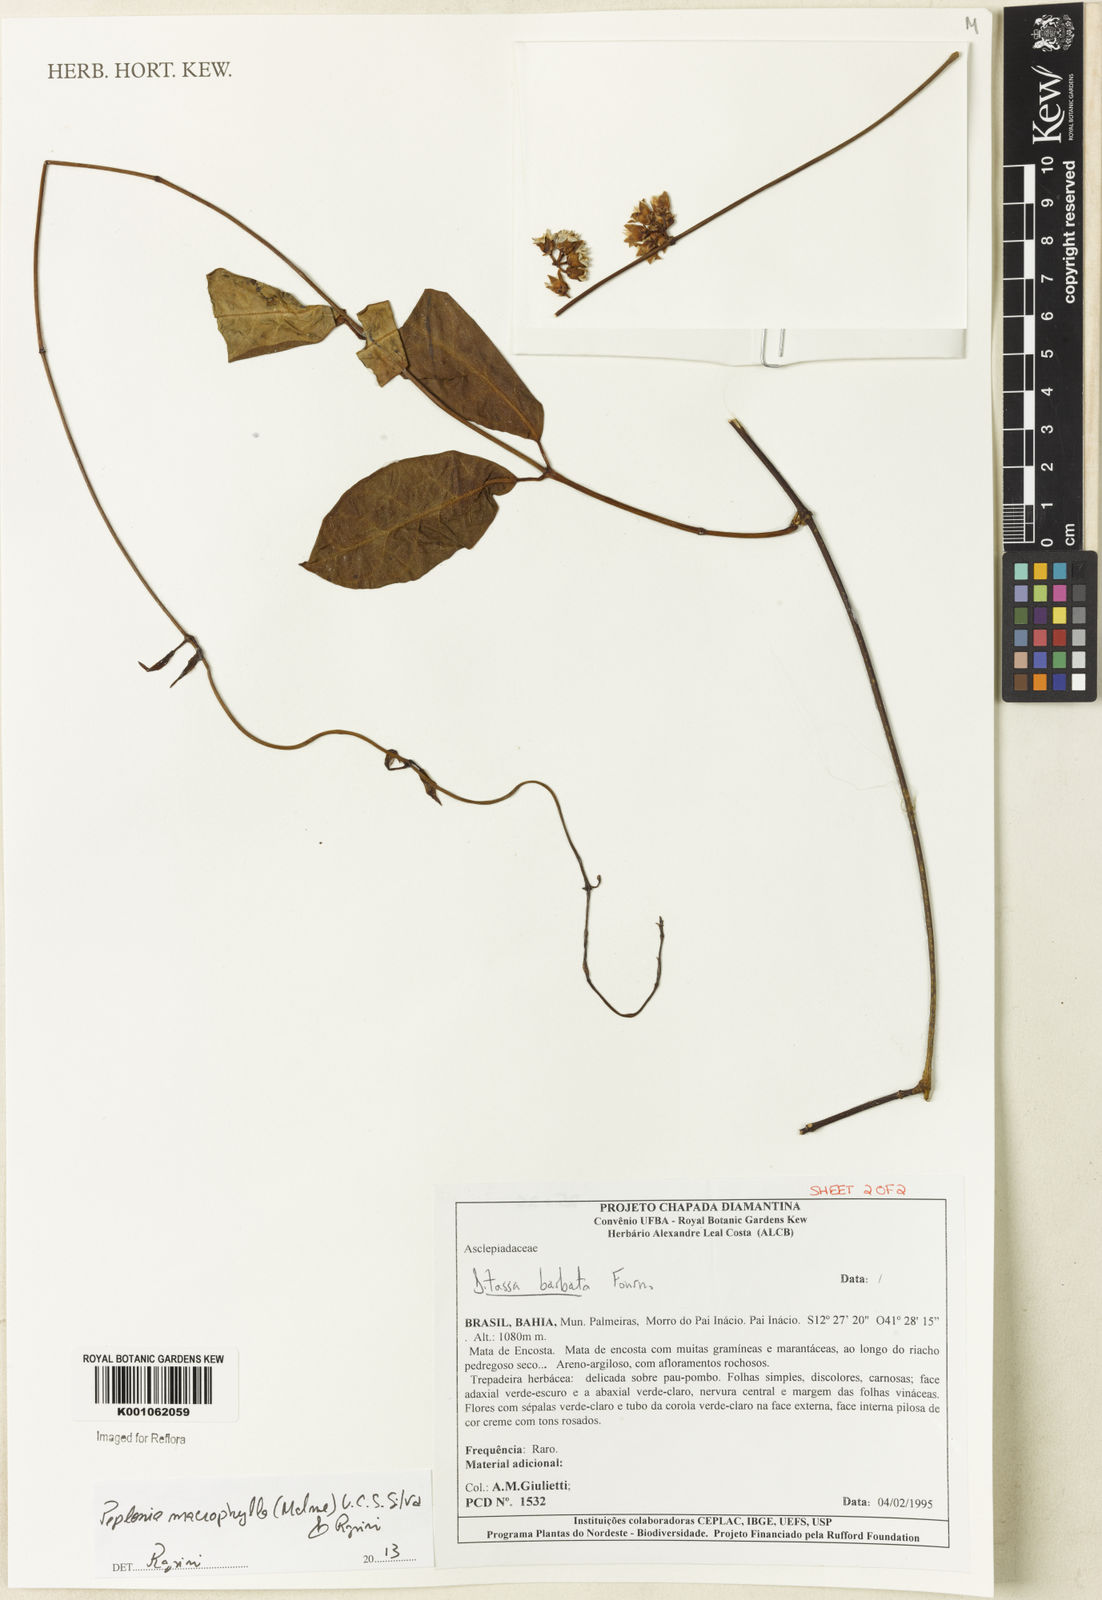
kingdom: Plantae
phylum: Tracheophyta
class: Magnoliopsida
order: Gentianales
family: Apocynaceae
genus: Peplonia
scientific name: Peplonia macrophylla
